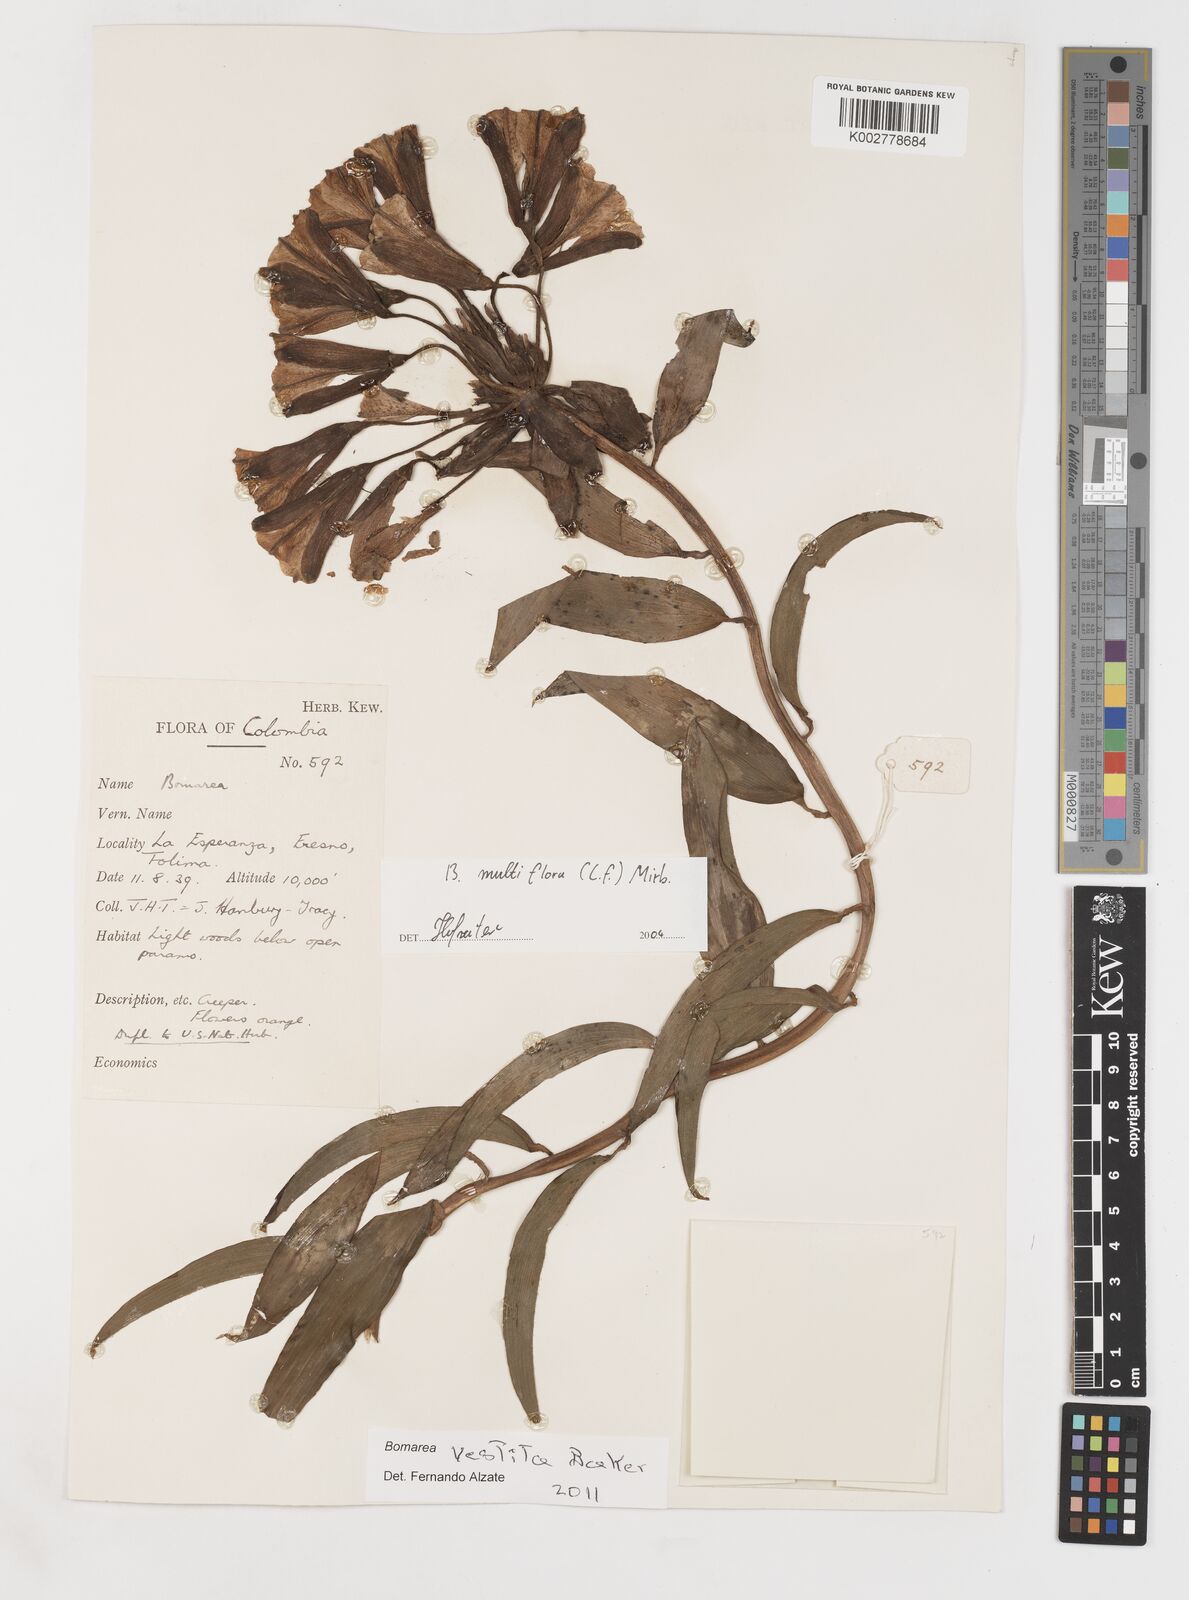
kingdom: Plantae
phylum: Tracheophyta
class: Liliopsida
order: Liliales
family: Alstroemeriaceae
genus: Bomarea
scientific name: Bomarea multiflora
